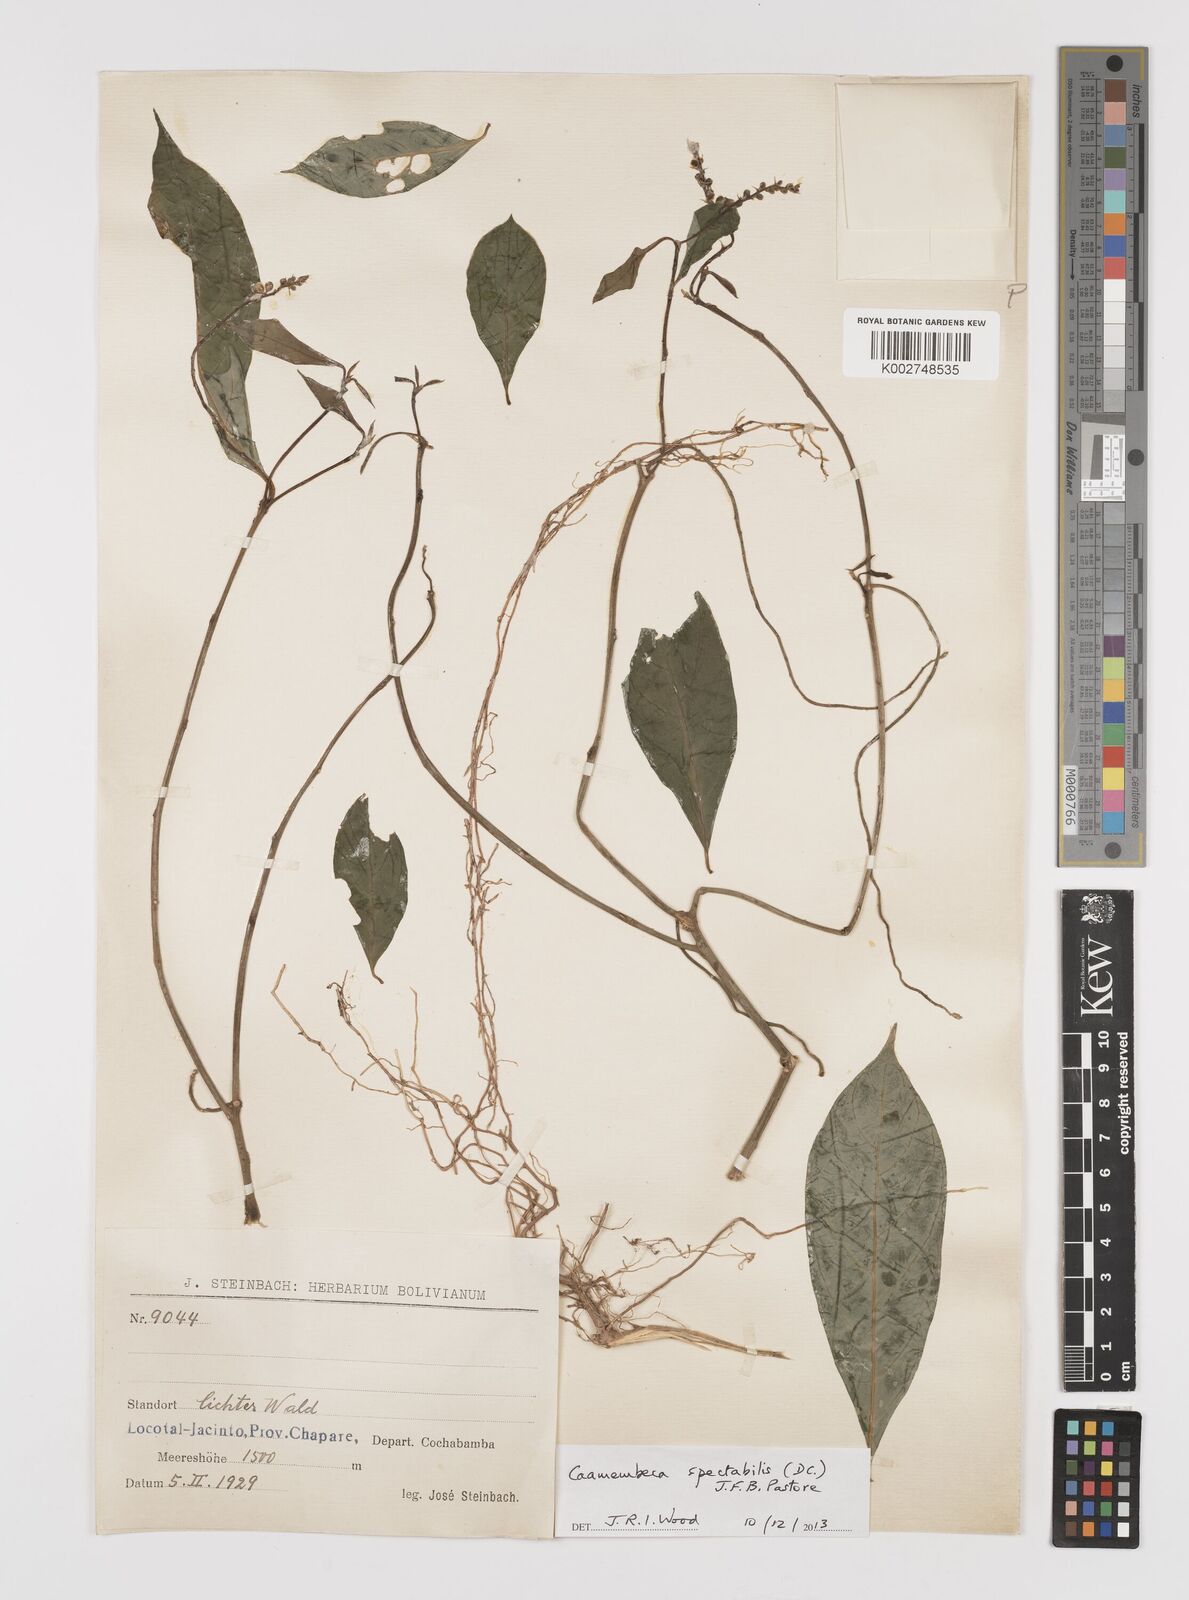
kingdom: Plantae
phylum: Tracheophyta
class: Magnoliopsida
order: Fabales
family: Polygalaceae
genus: Caamembeca
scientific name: Caamembeca spectabilis
